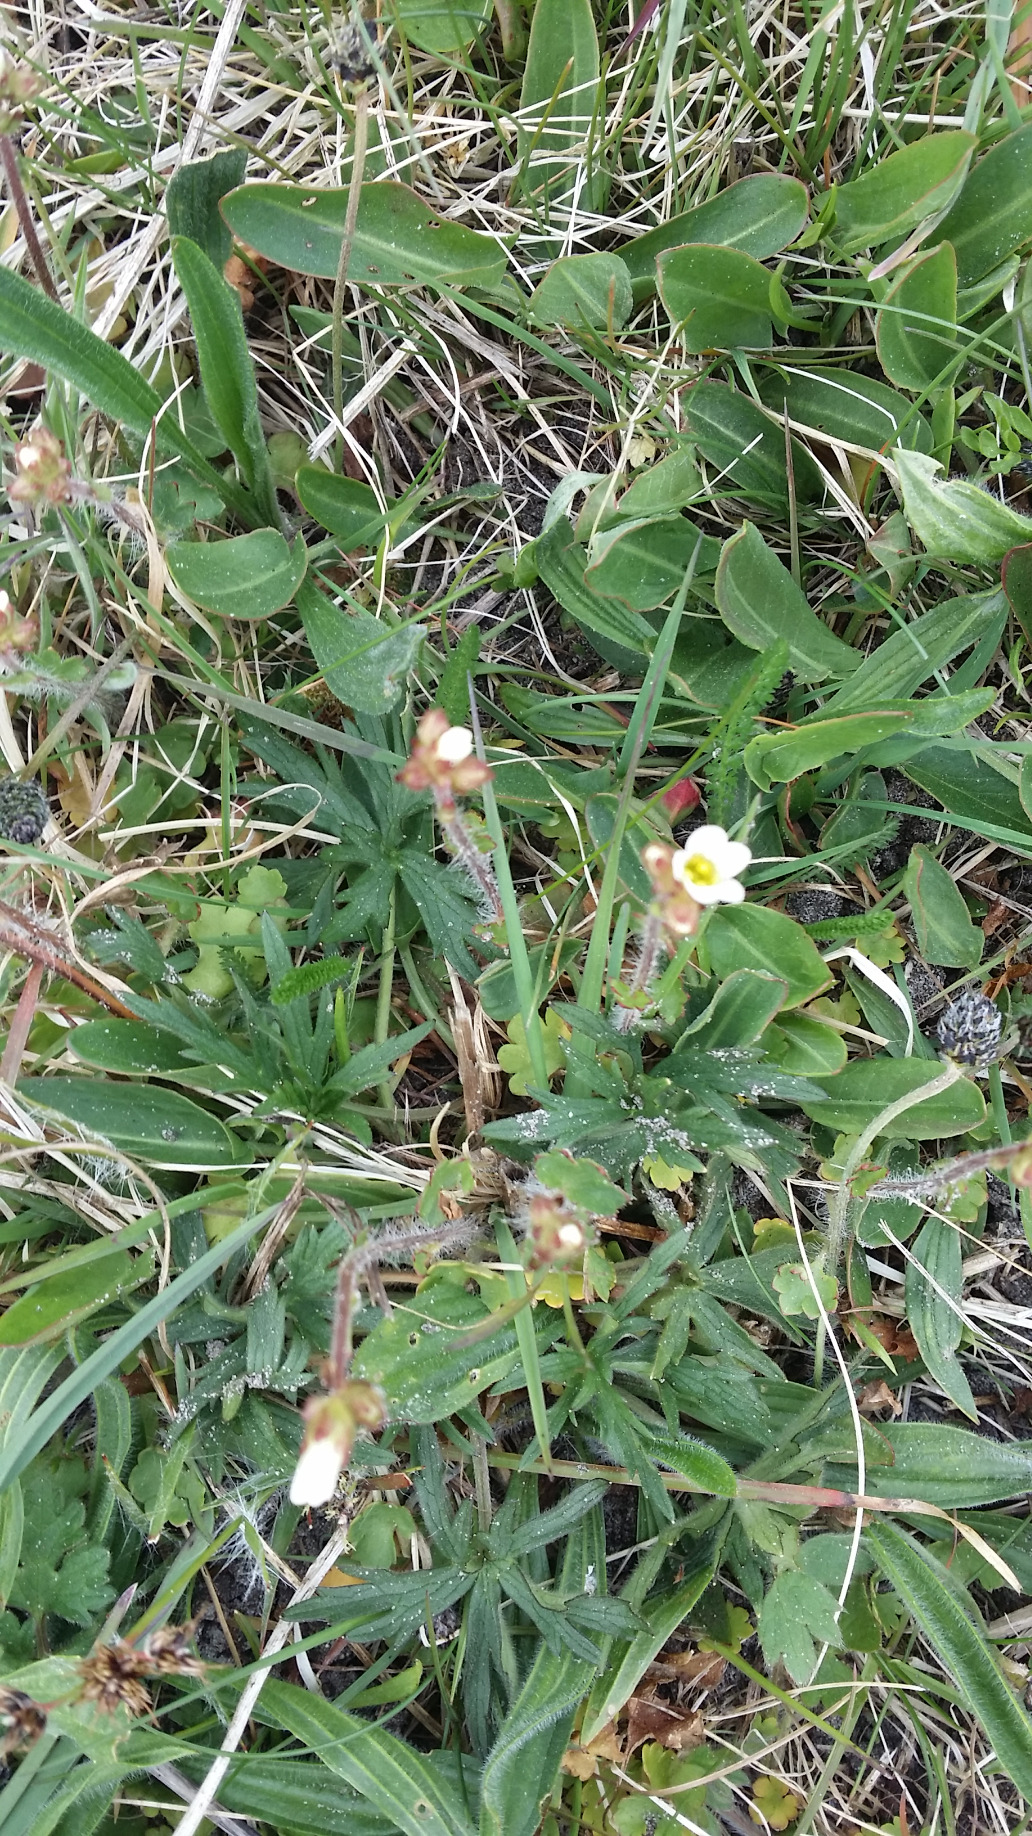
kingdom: Plantae
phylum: Tracheophyta
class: Magnoliopsida
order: Saxifragales
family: Saxifragaceae
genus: Saxifraga
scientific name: Saxifraga granulata
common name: Kornet stenbræk
